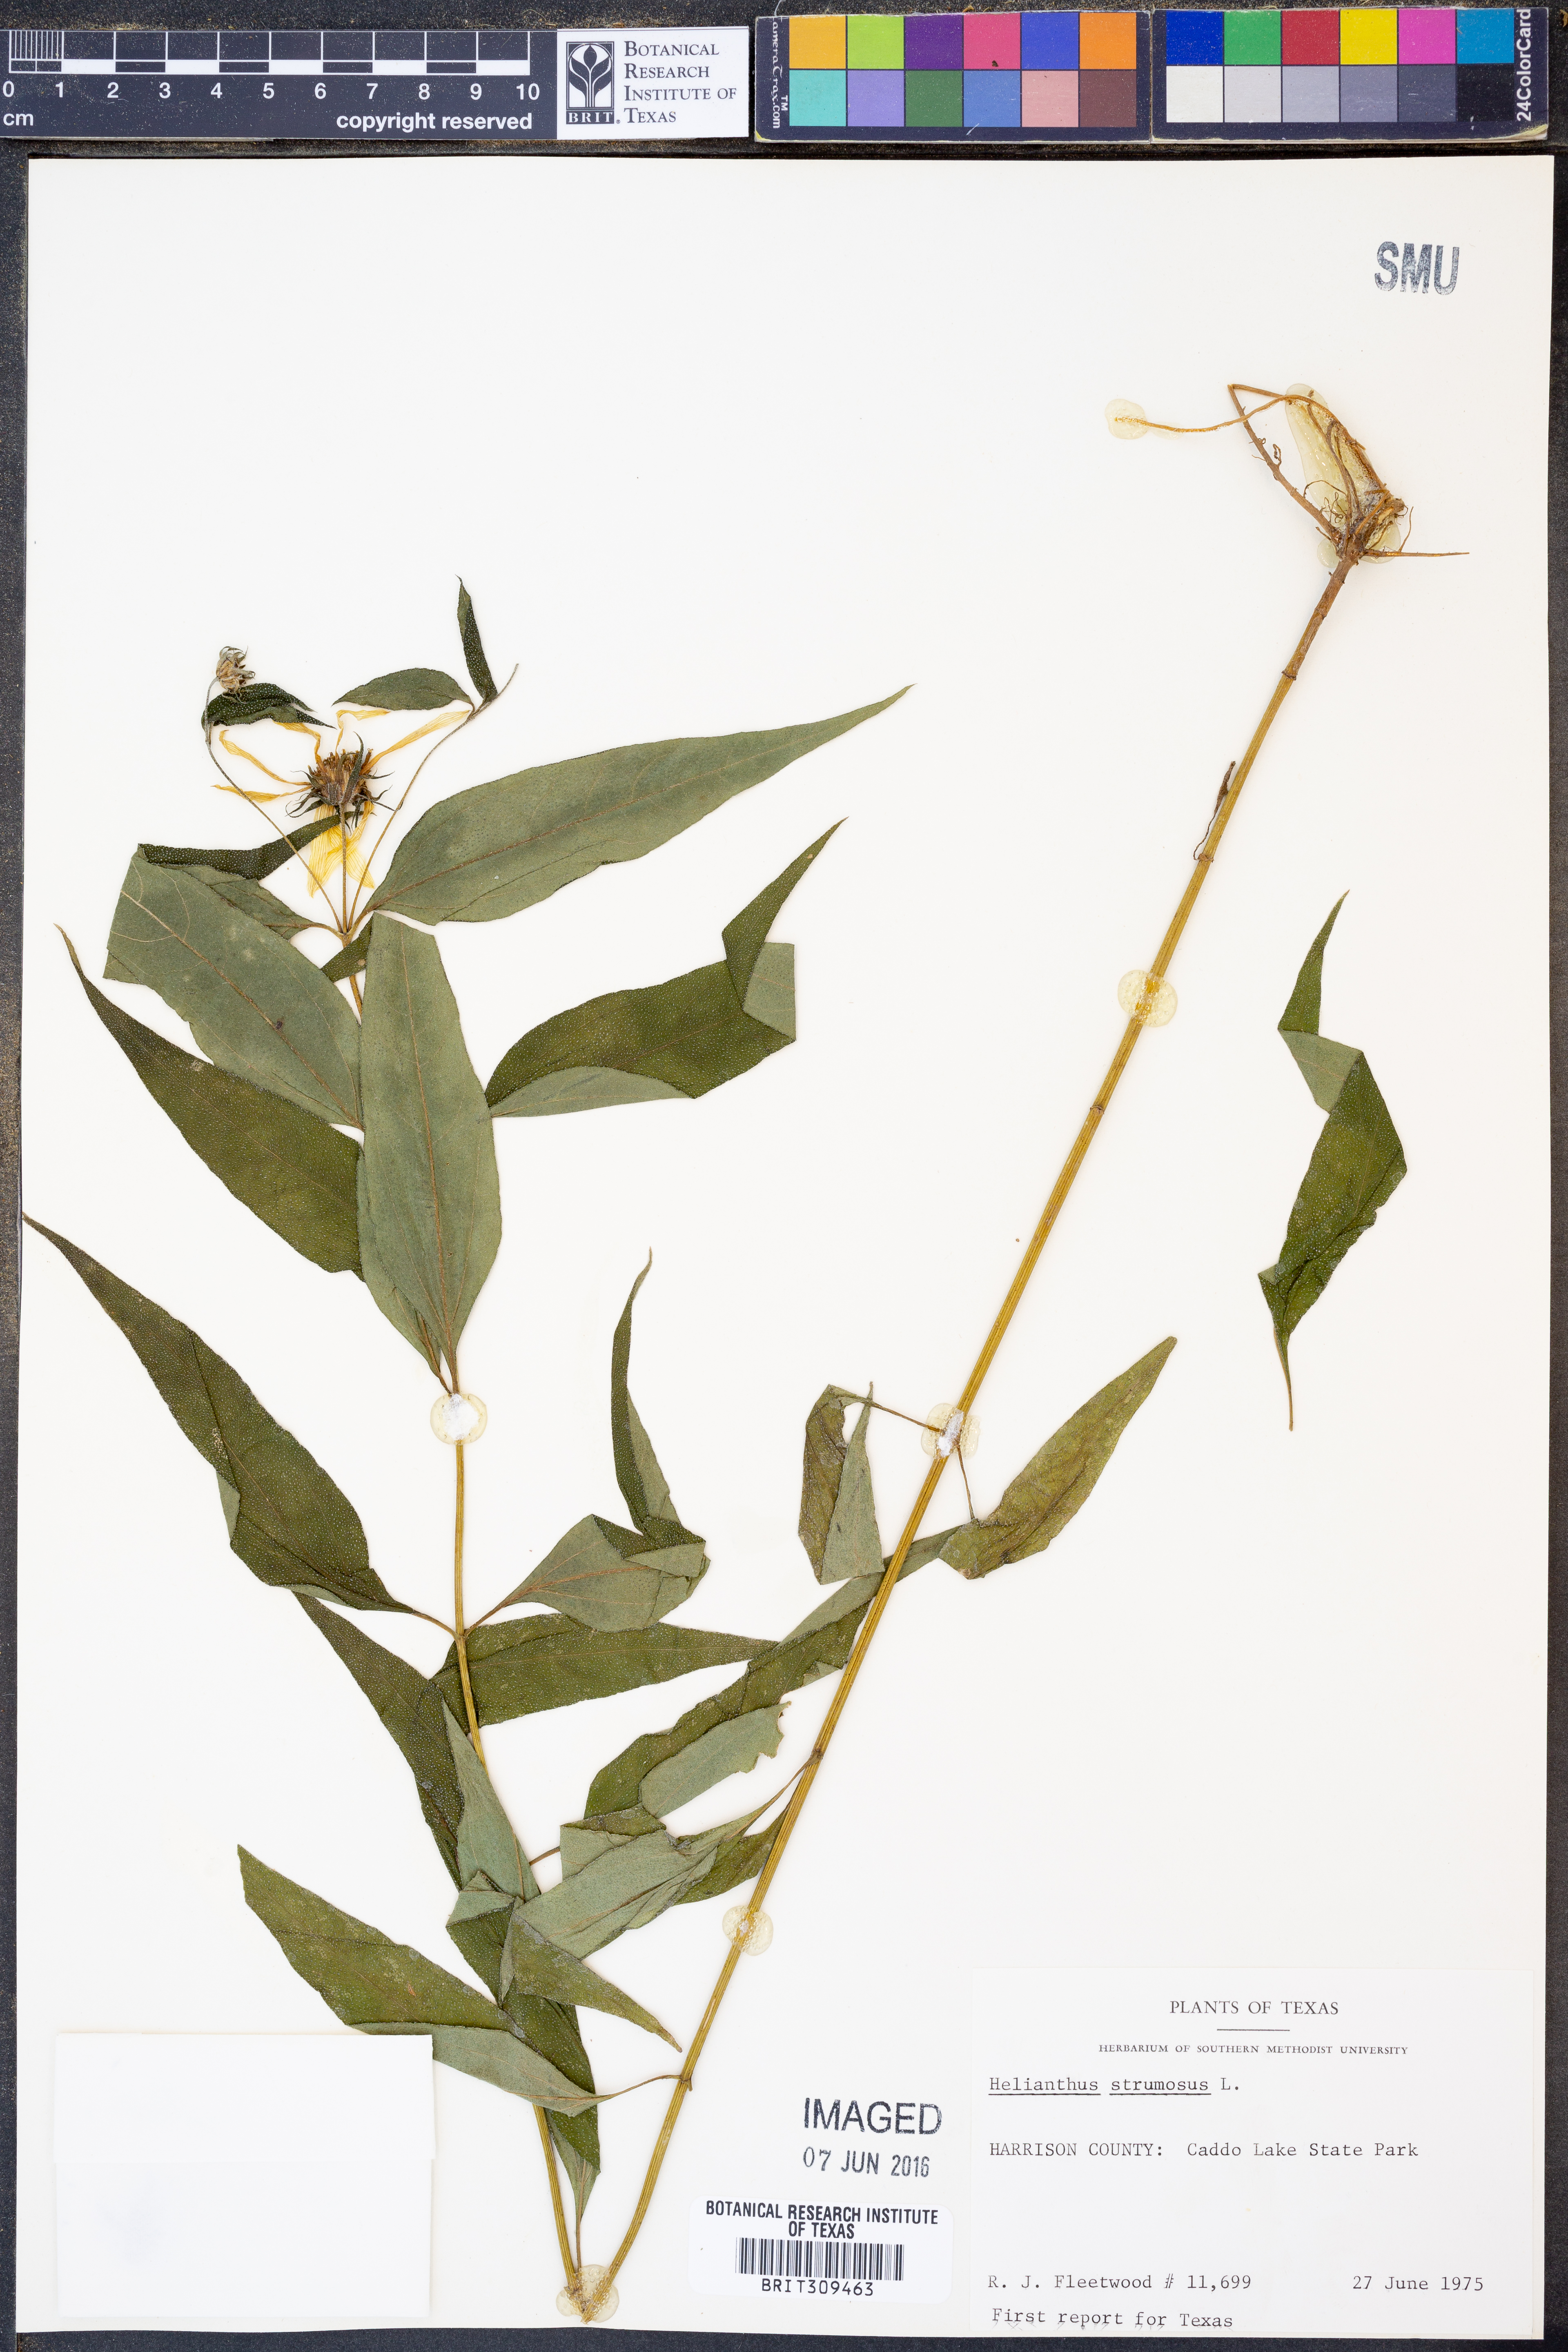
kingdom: Plantae
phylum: Tracheophyta
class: Magnoliopsida
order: Asterales
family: Asteraceae
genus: Helianthus
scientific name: Helianthus strumosus
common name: Pale-leaved sunflower
